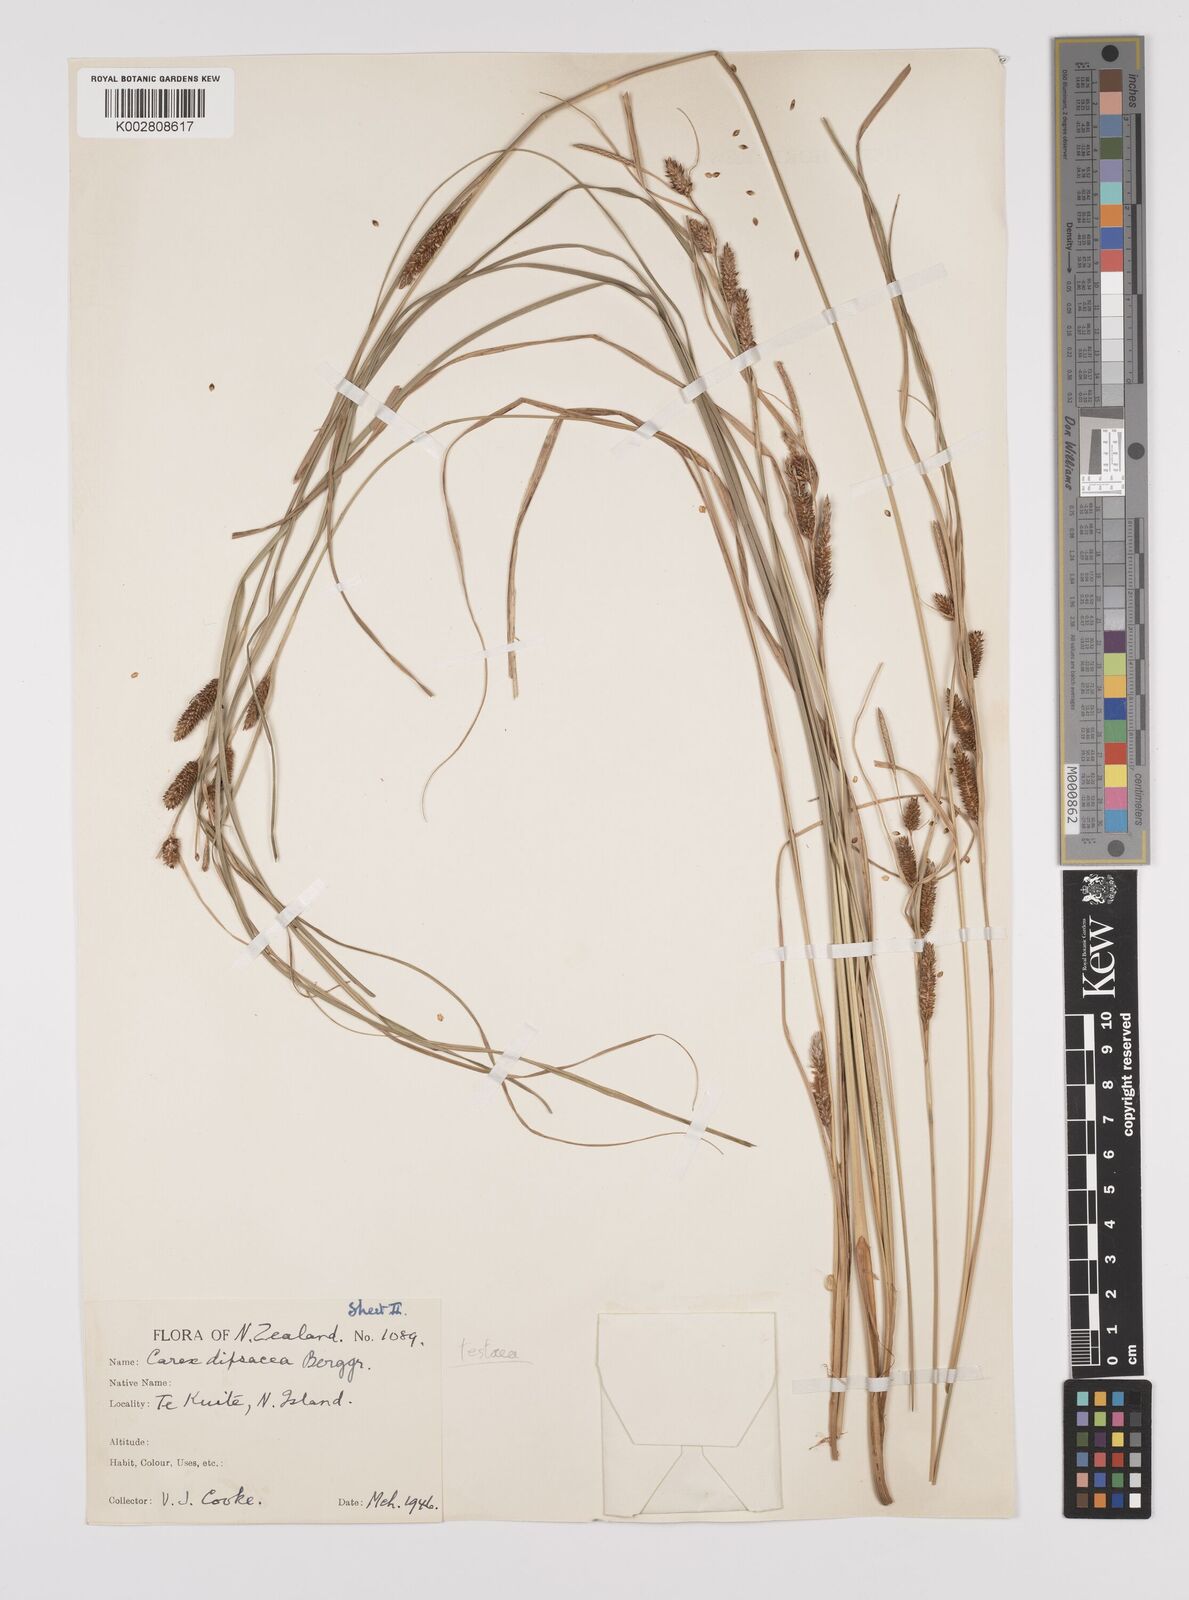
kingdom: Plantae
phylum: Tracheophyta
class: Liliopsida
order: Poales
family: Cyperaceae
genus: Carex
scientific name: Carex dipsacea
